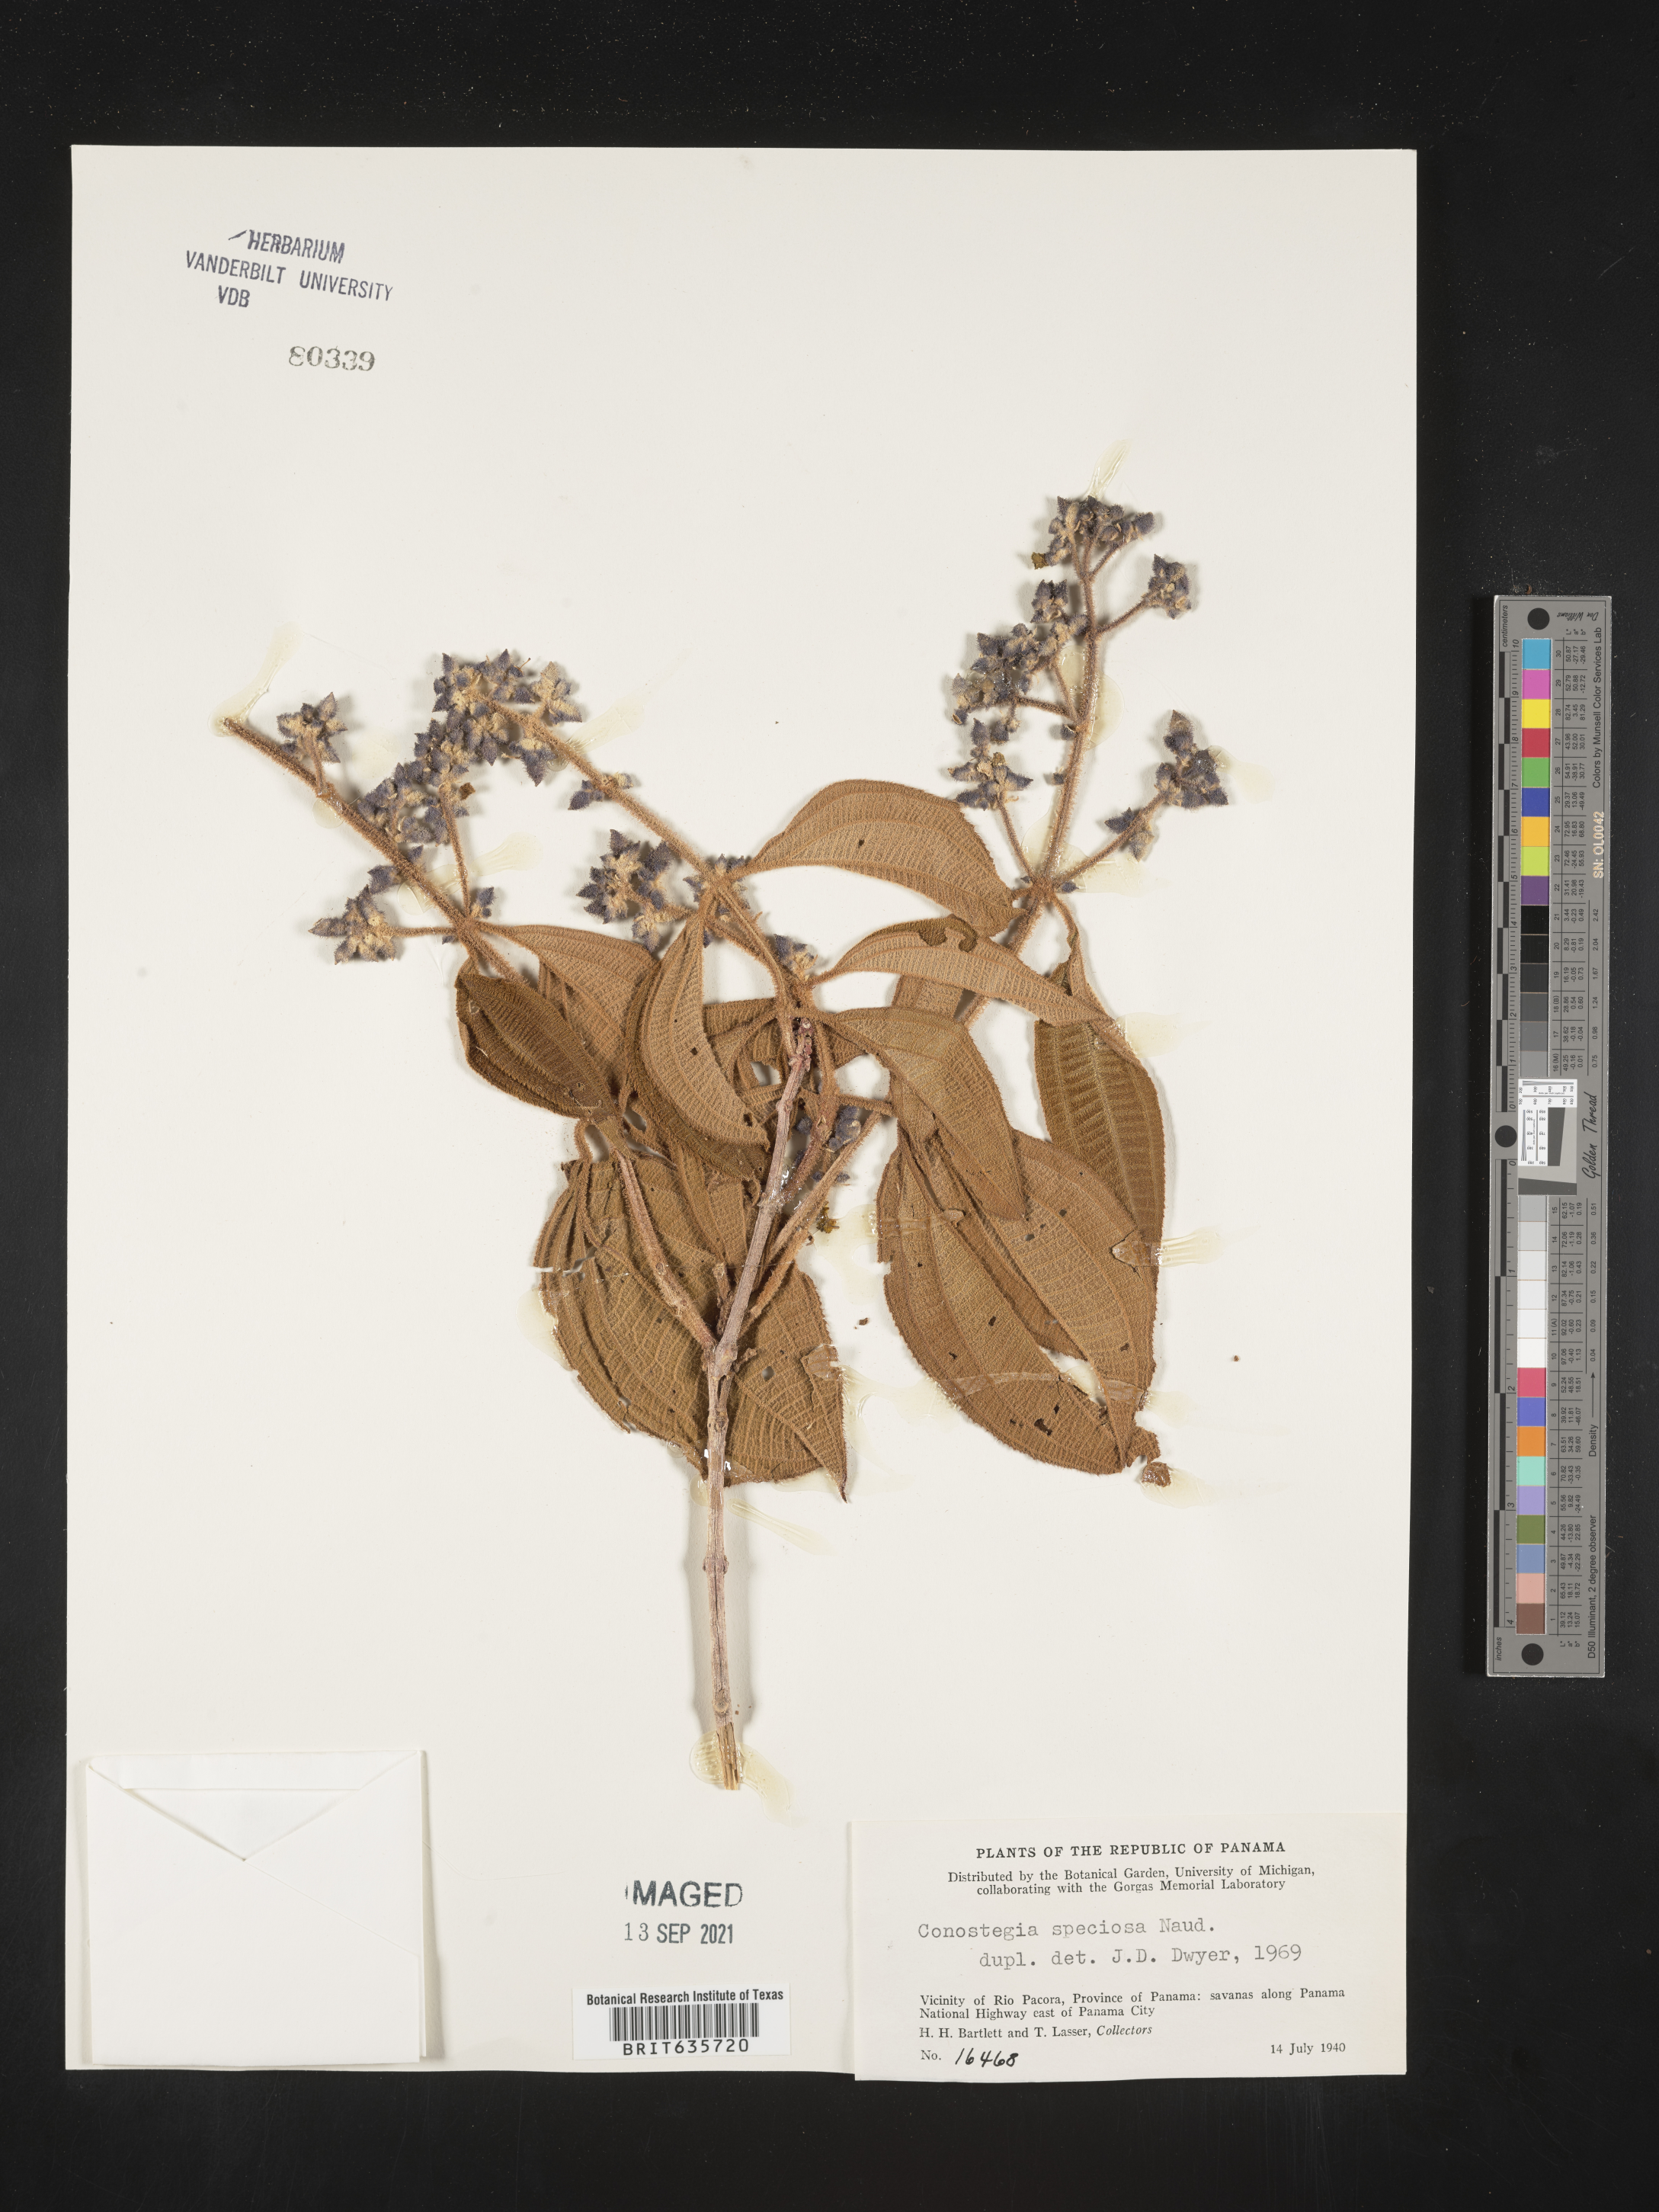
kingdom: Plantae
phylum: Tracheophyta
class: Magnoliopsida
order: Myrtales
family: Melastomataceae
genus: Miconia
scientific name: Miconia
